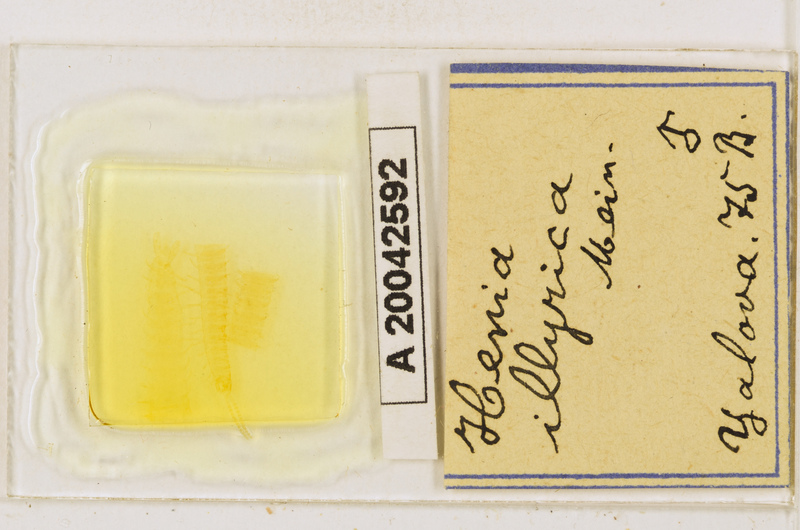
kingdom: Animalia
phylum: Arthropoda
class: Chilopoda
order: Geophilomorpha
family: Dignathodontidae
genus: Henia
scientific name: Henia illyrica
